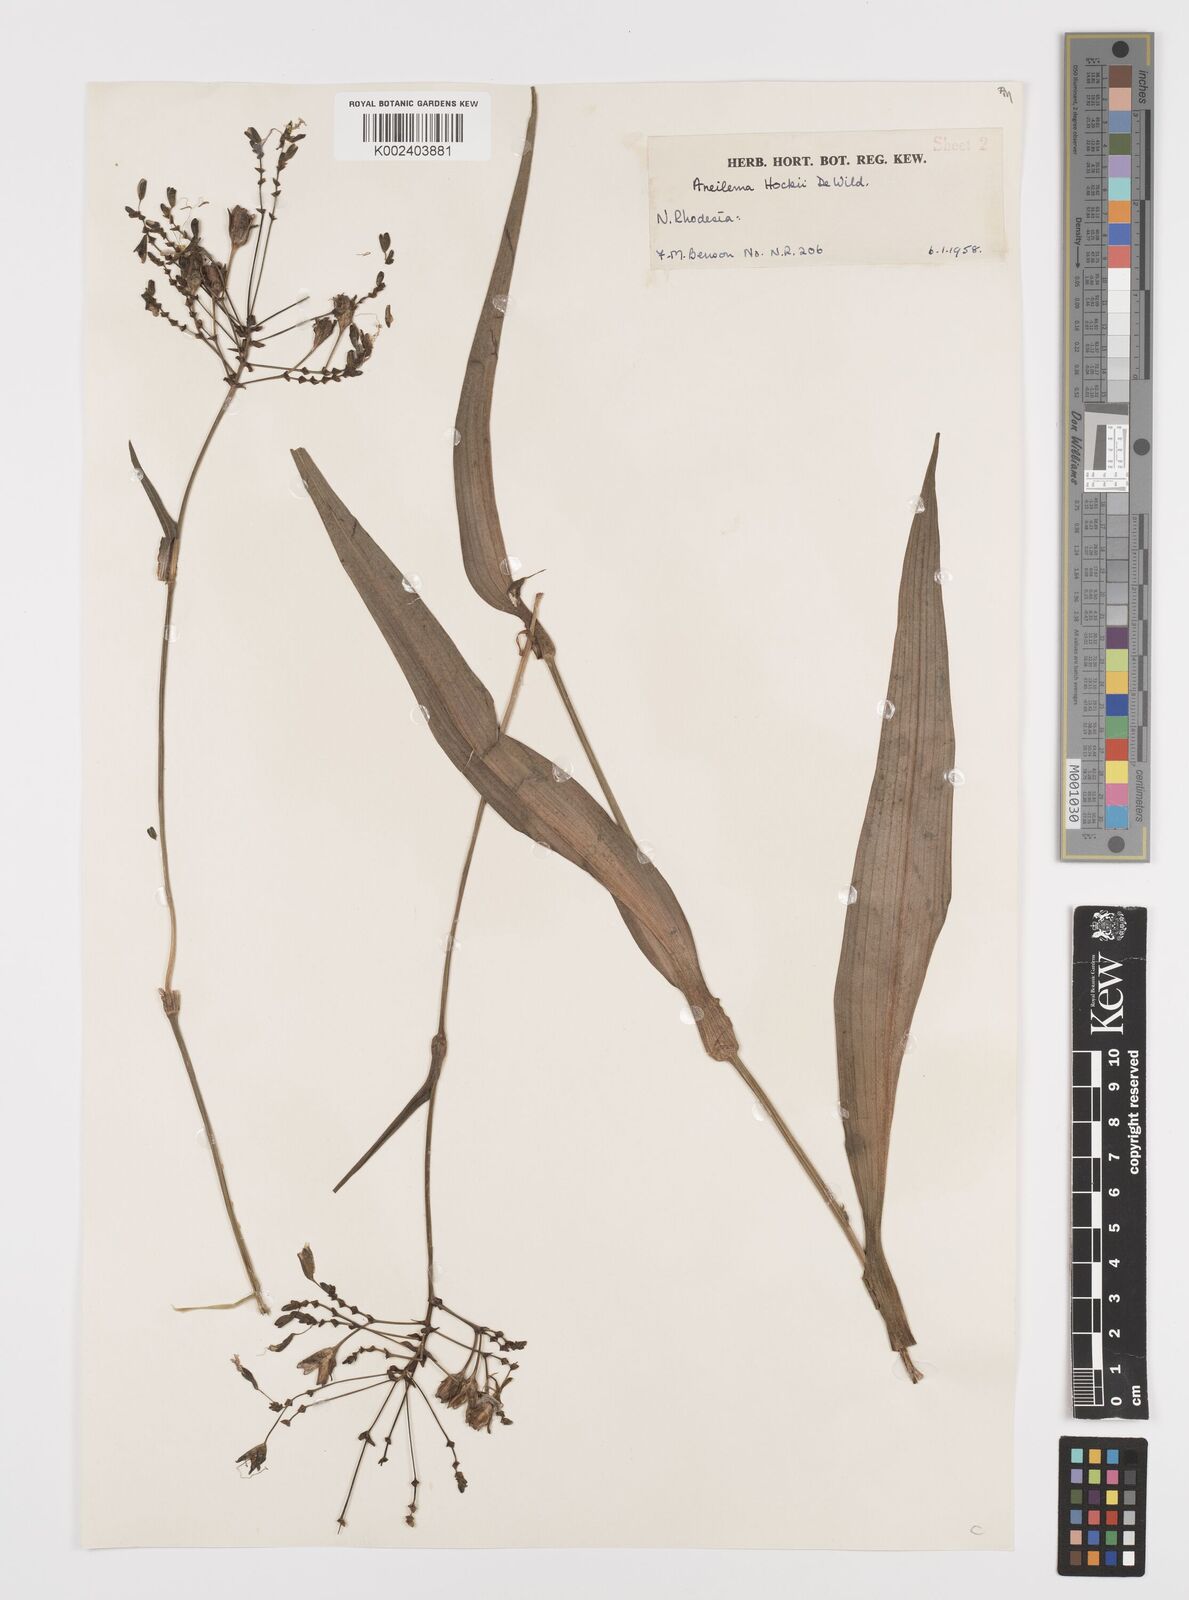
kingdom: Plantae
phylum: Tracheophyta
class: Liliopsida
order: Commelinales
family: Commelinaceae
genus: Aneilema
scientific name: Aneilema hockii
